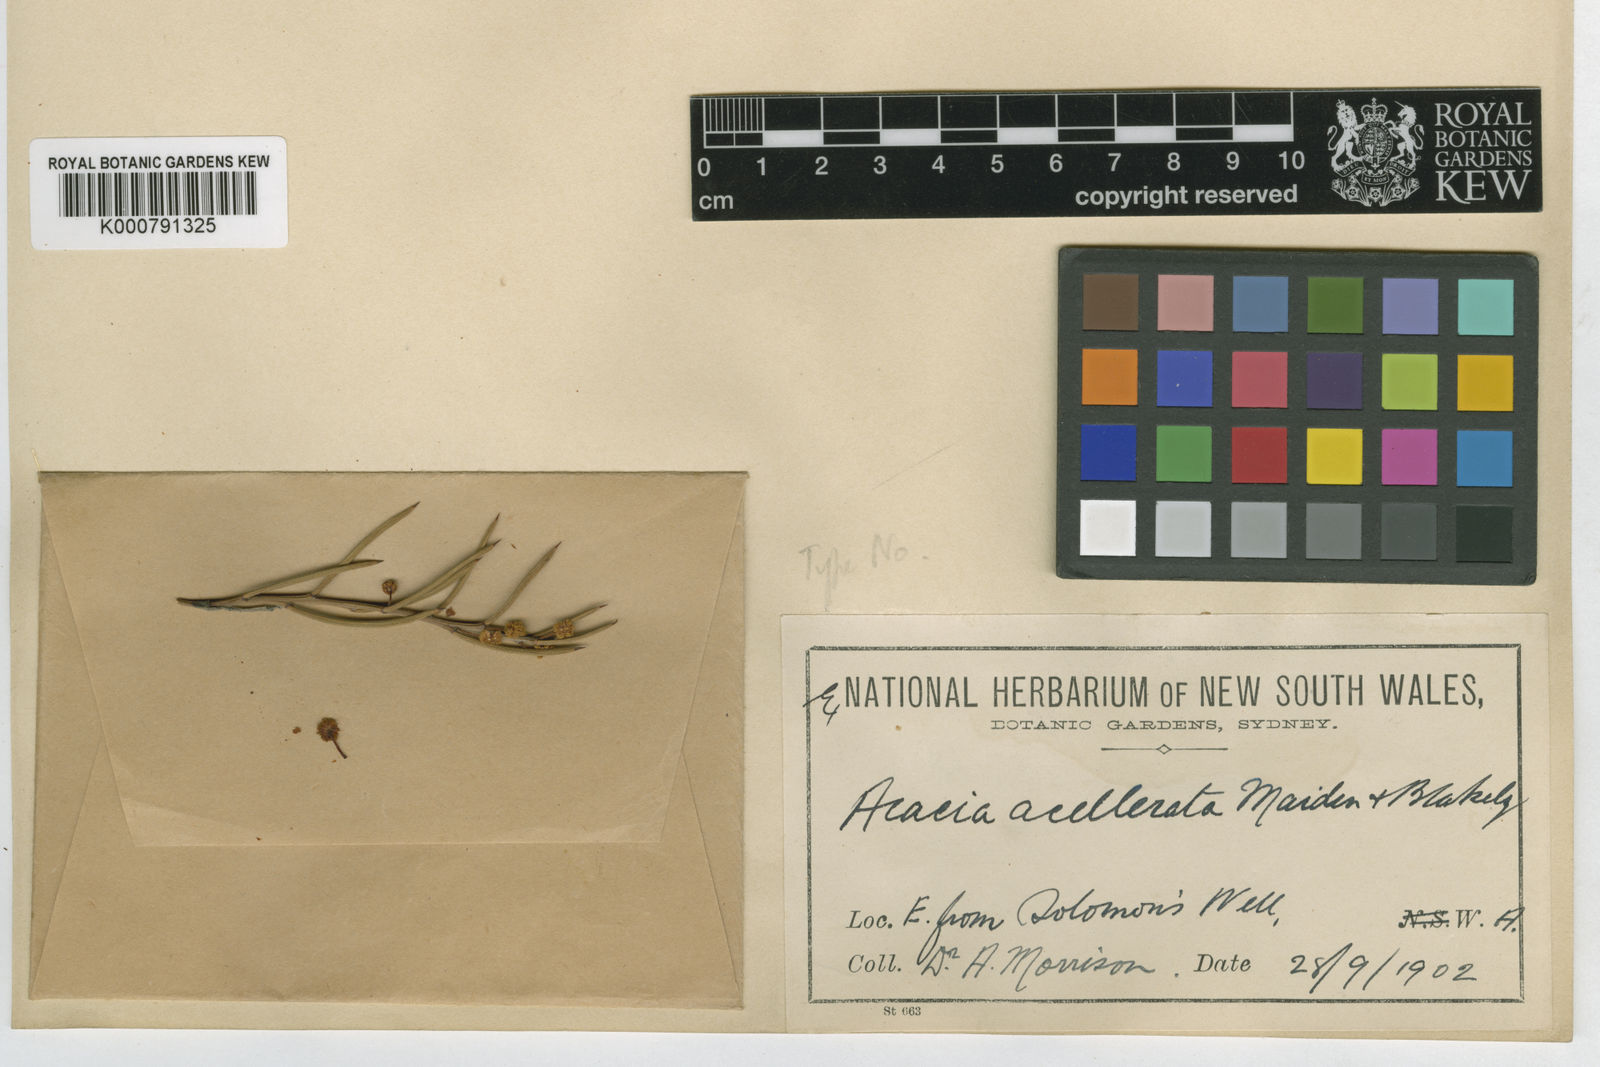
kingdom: Plantae
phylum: Tracheophyta
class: Magnoliopsida
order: Fabales
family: Fabaceae
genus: Acacia
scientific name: Acacia acellerata
